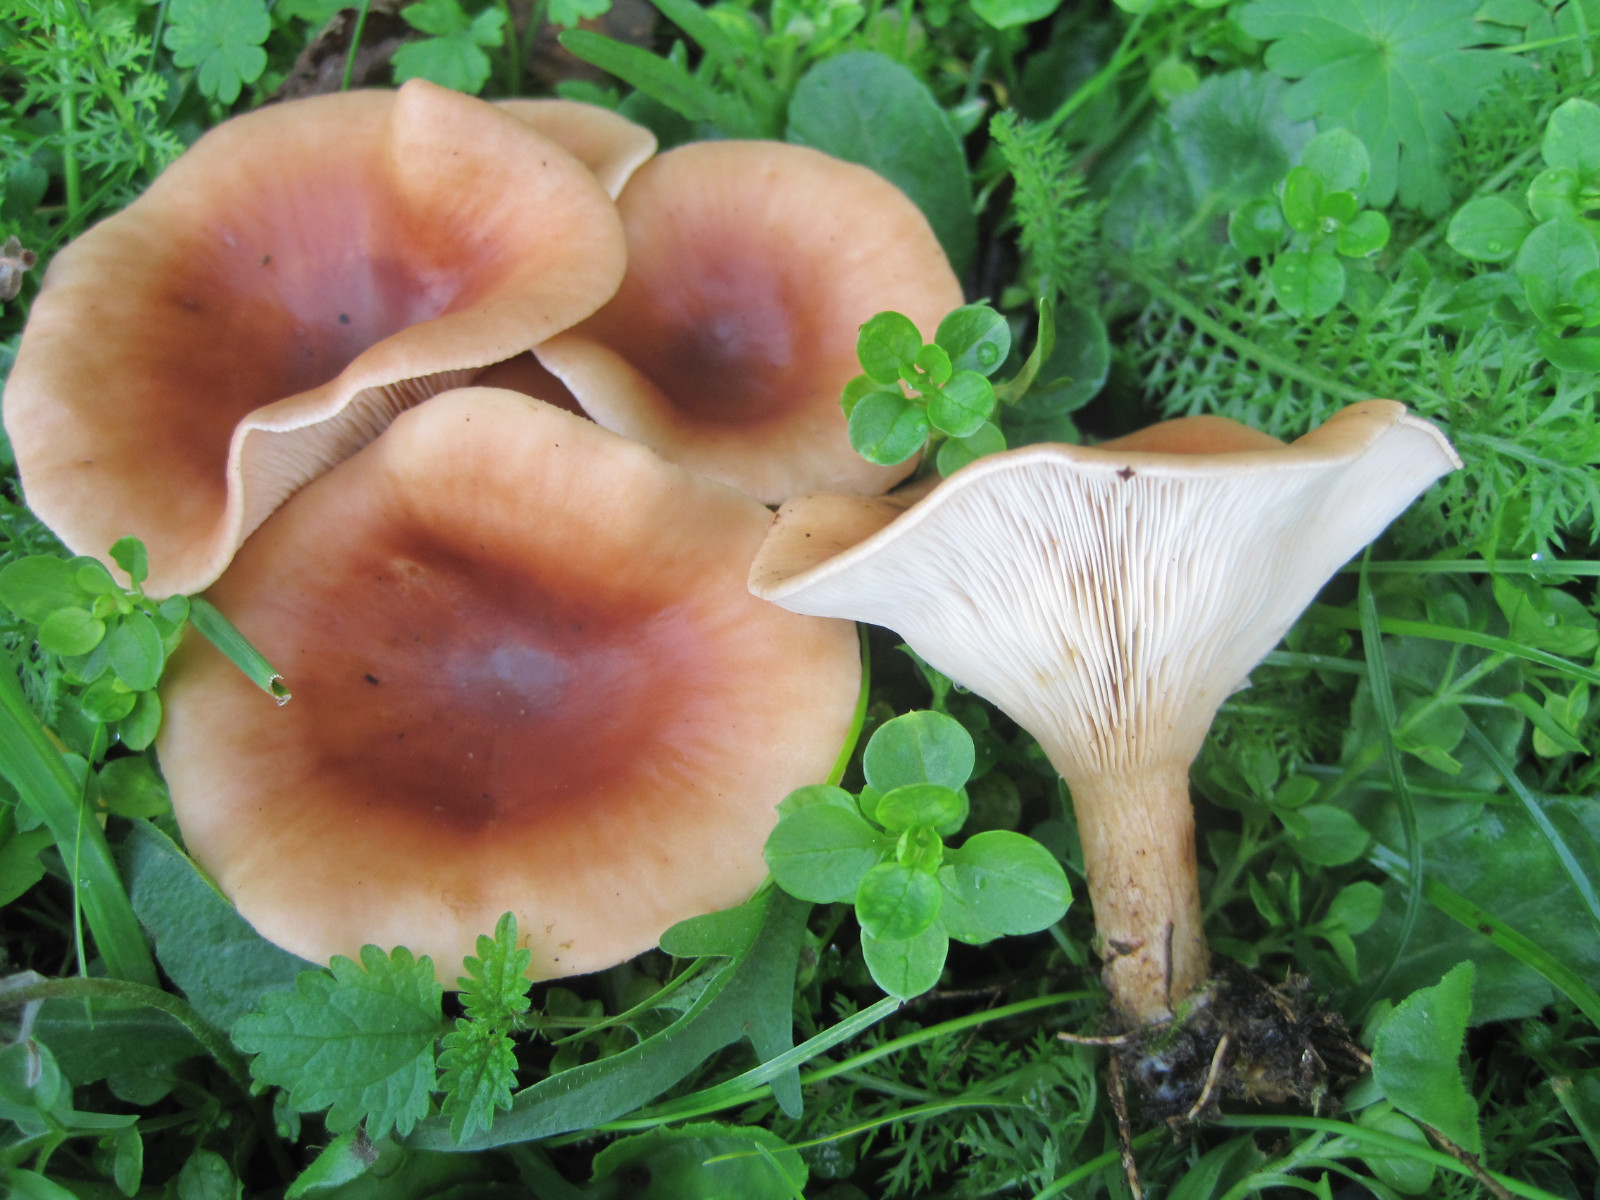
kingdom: Fungi
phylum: Basidiomycota
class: Agaricomycetes
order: Agaricales
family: Tricholomataceae
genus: Paralepista
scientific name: Paralepista flaccida
